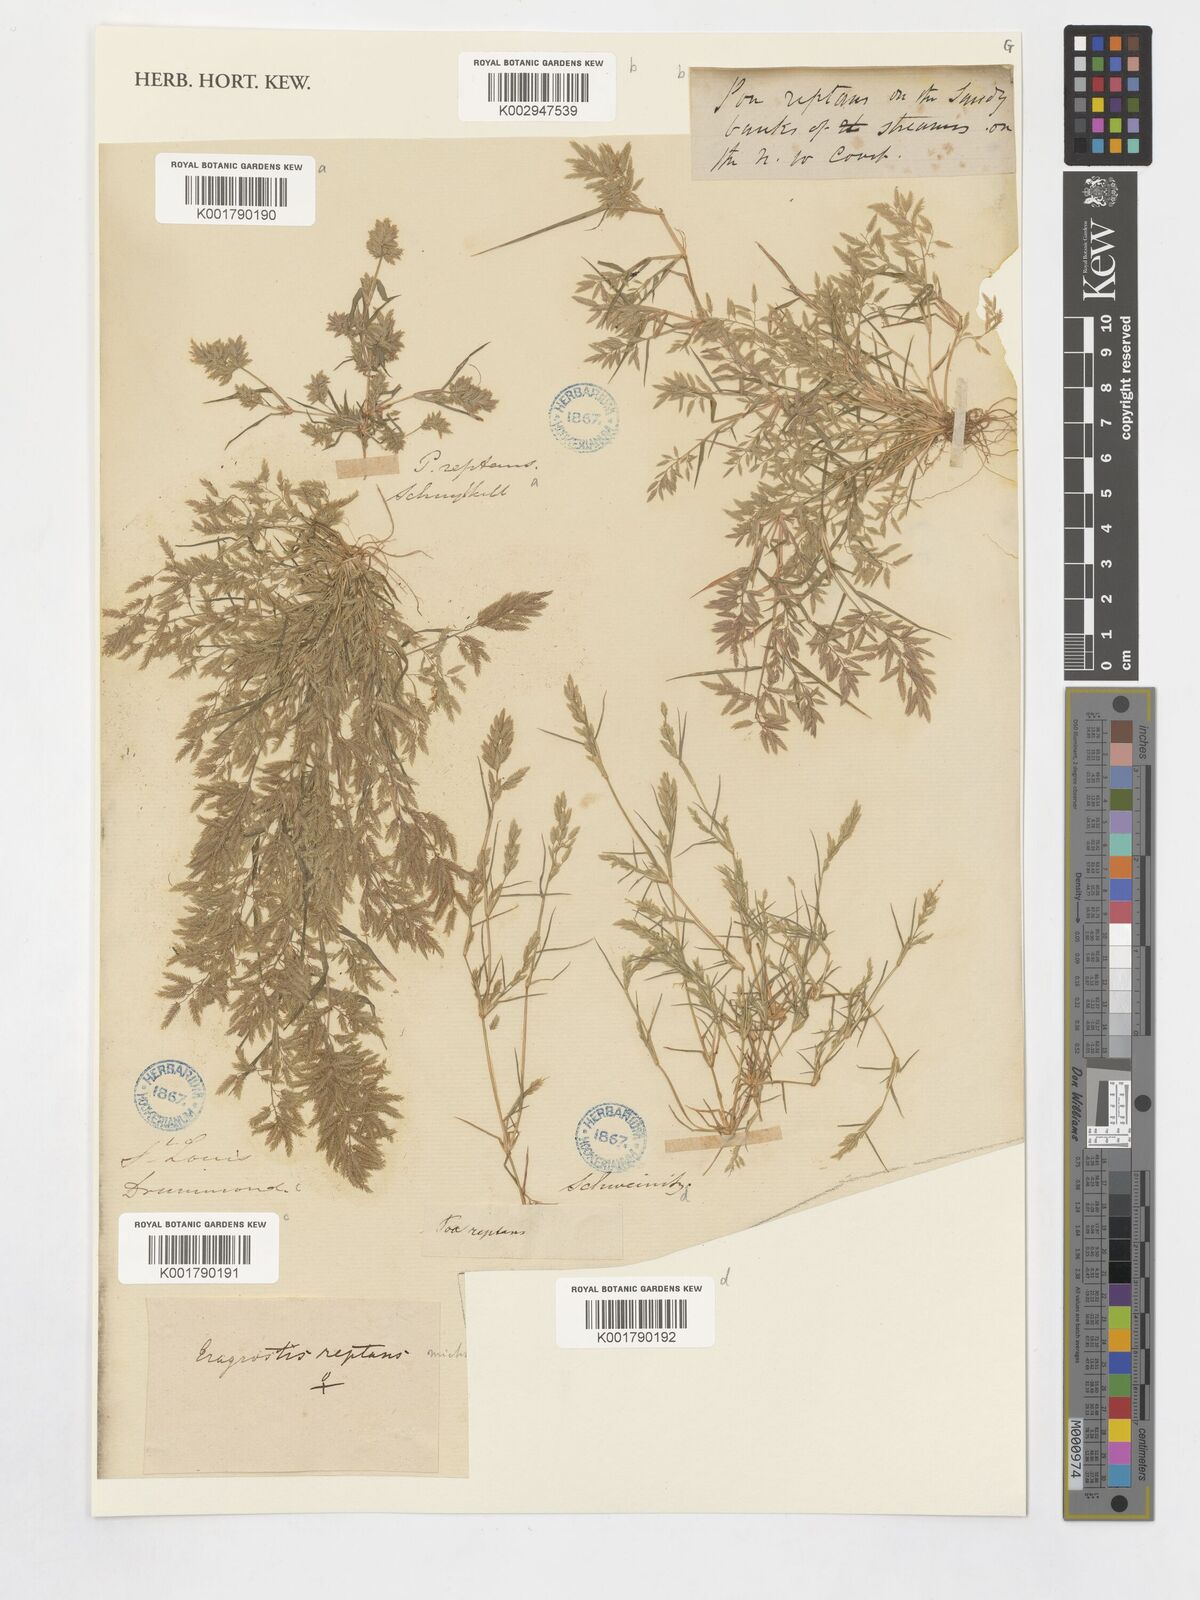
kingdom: Plantae
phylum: Tracheophyta
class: Liliopsida
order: Poales
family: Poaceae
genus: Eragrostis
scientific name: Eragrostis reptans
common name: Creeping love grass
